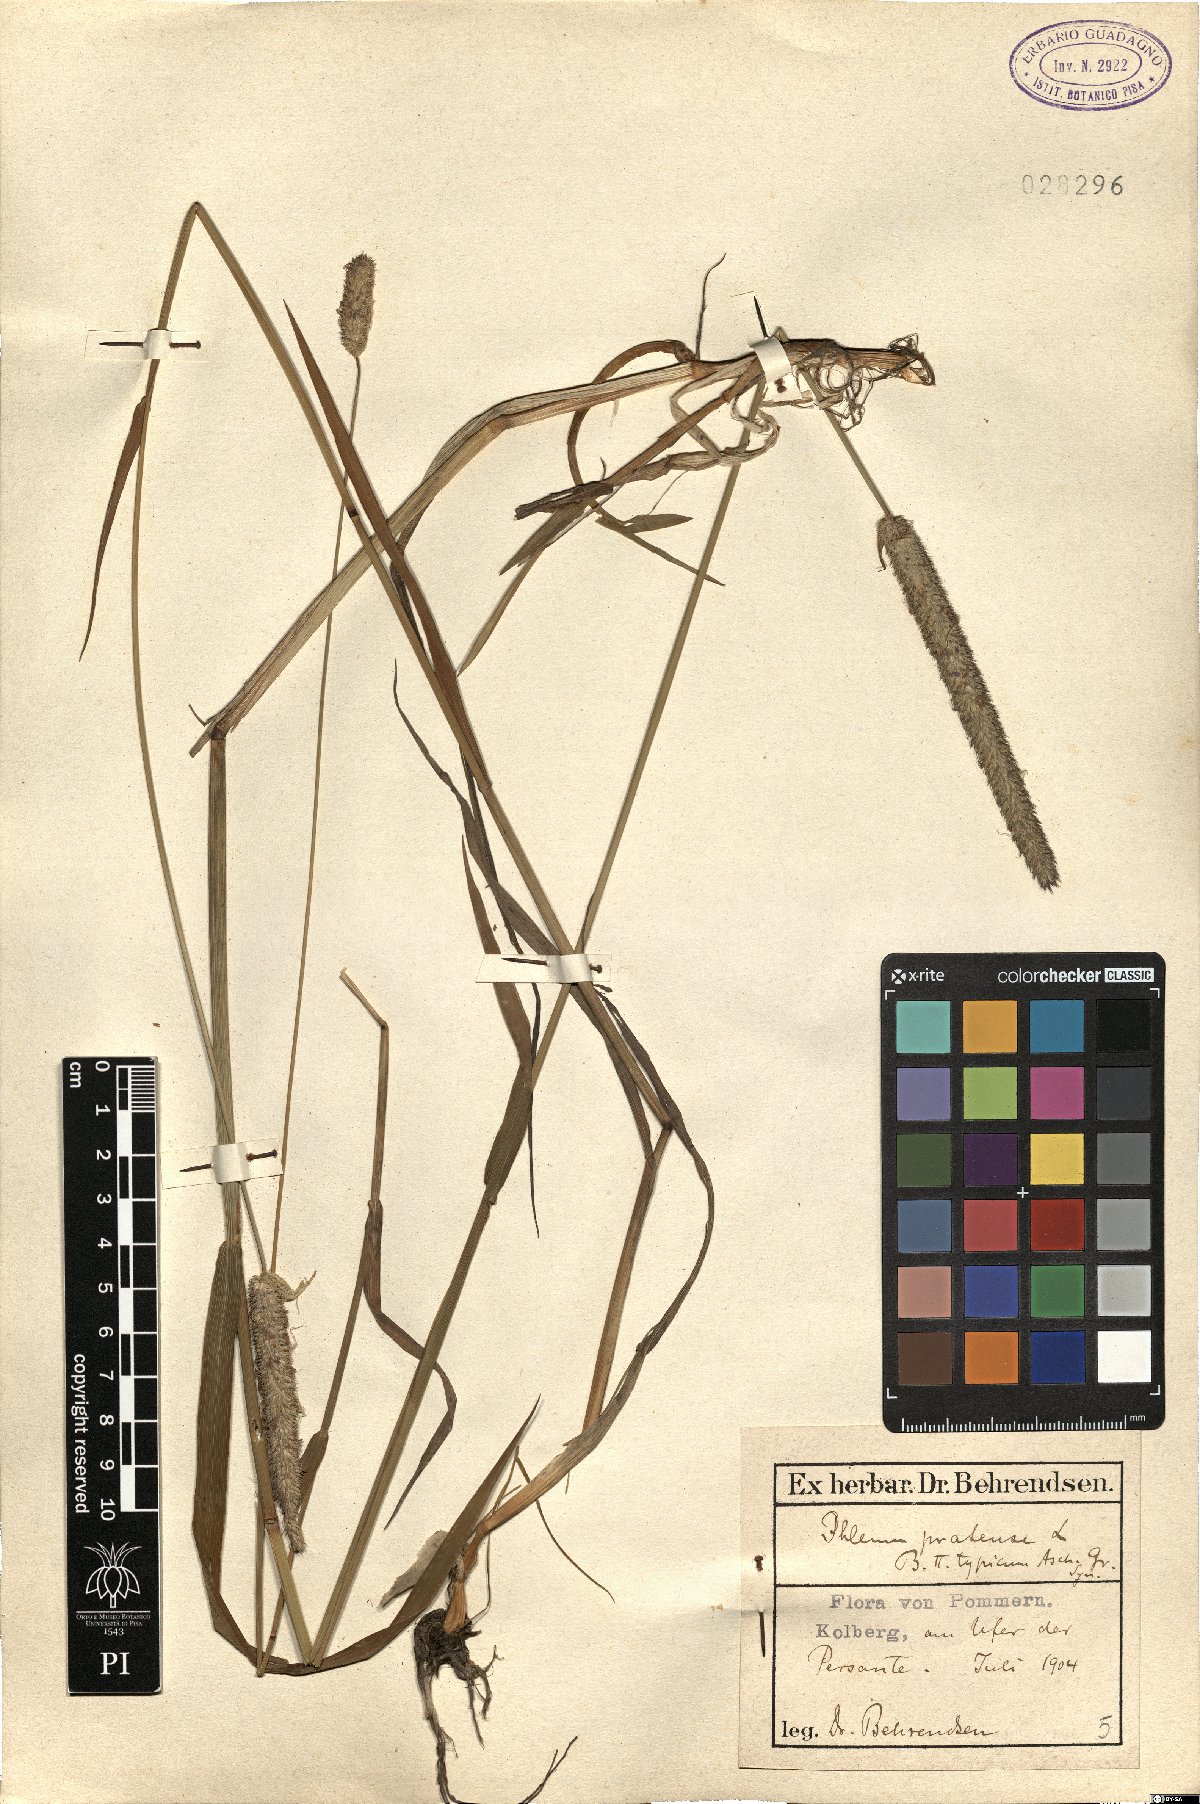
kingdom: Plantae
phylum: Tracheophyta
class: Liliopsida
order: Poales
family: Poaceae
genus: Phleum
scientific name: Phleum pratense
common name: Timothy grass
